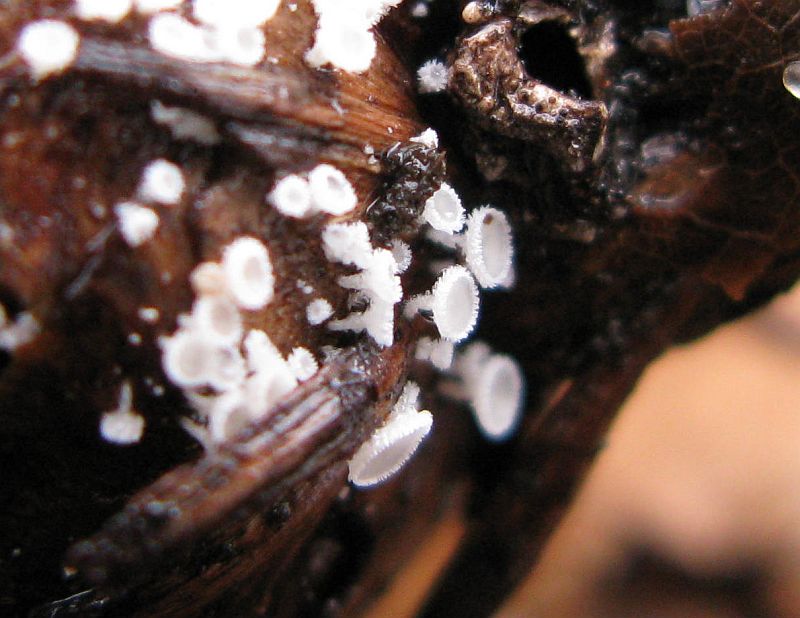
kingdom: Fungi
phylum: Ascomycota
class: Leotiomycetes
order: Helotiales
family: Lachnaceae
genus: Lachnum
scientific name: Lachnum virgineum
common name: jomfru-frynseskive
